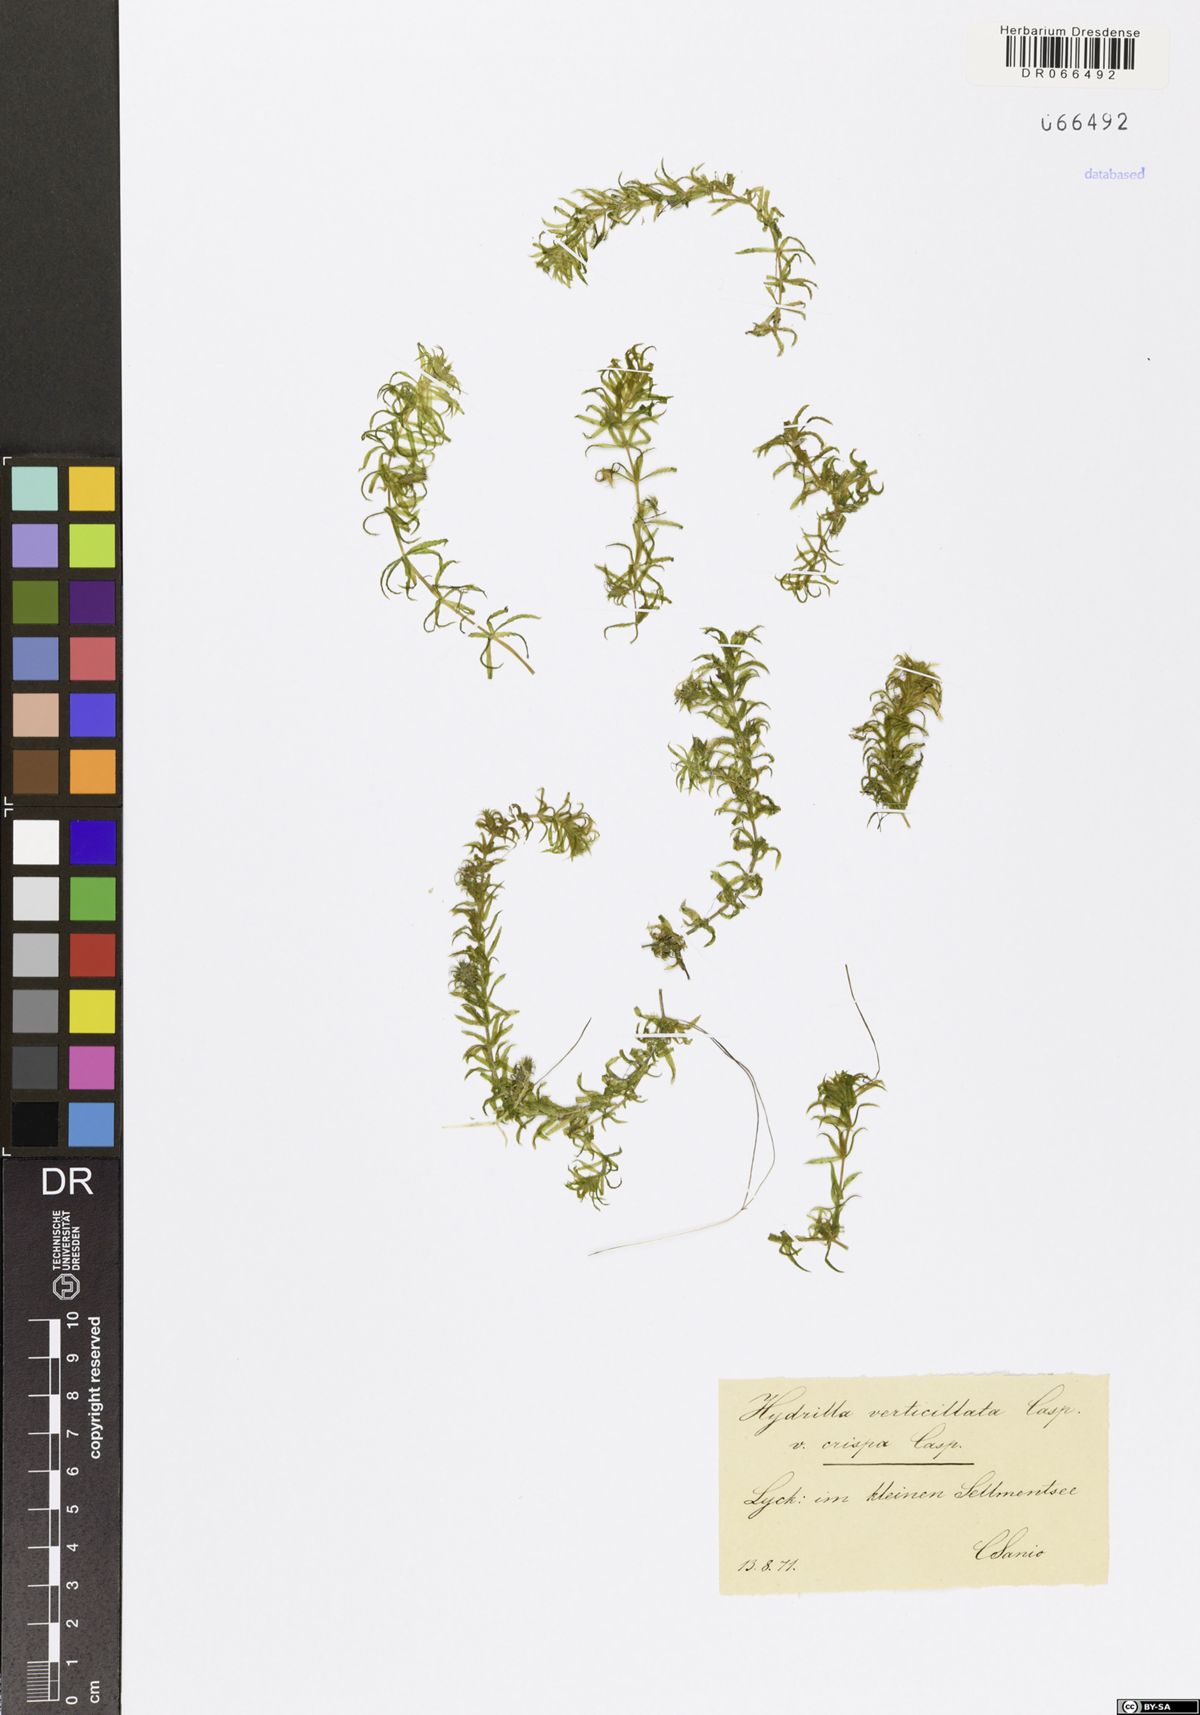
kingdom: Plantae
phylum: Tracheophyta
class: Liliopsida
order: Alismatales
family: Hydrocharitaceae
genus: Hydrilla
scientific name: Hydrilla verticillata
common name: Florida-elodea
